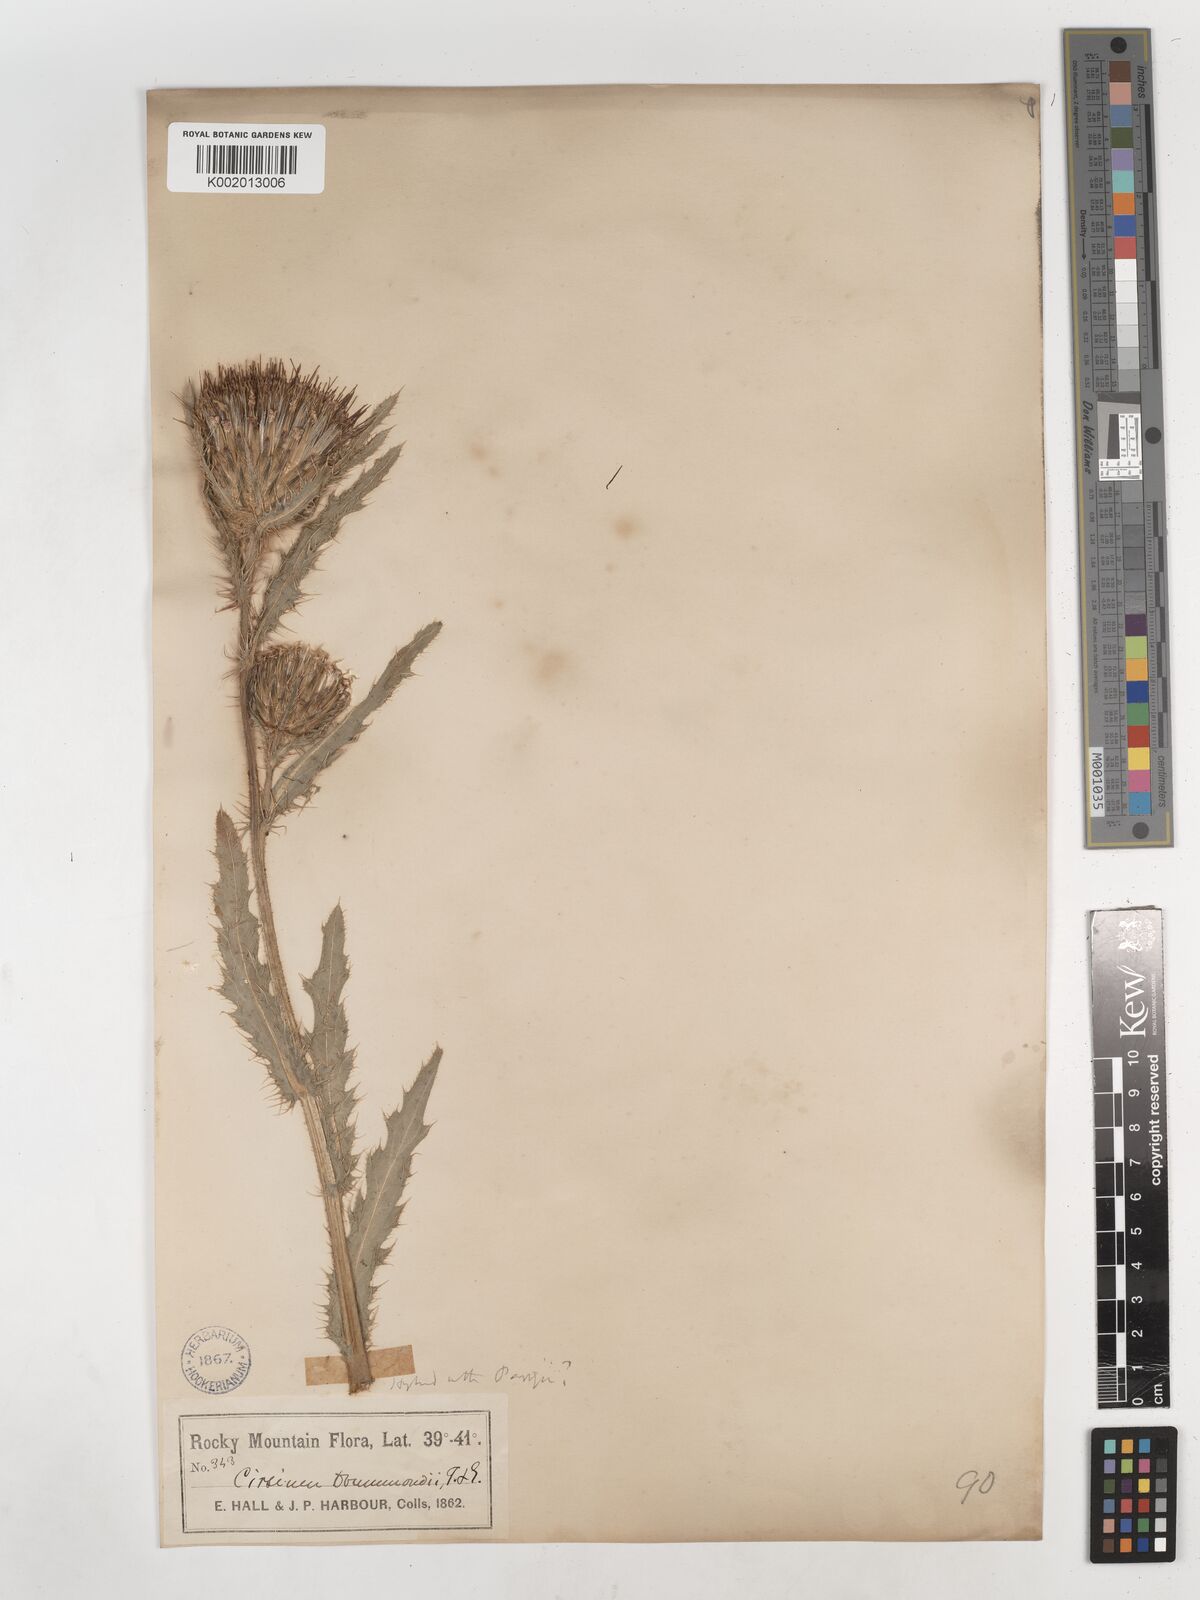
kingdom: Plantae
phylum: Tracheophyta
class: Magnoliopsida
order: Asterales
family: Asteraceae
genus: Cirsium
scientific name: Cirsium drummondii
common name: Drummond's thistle
